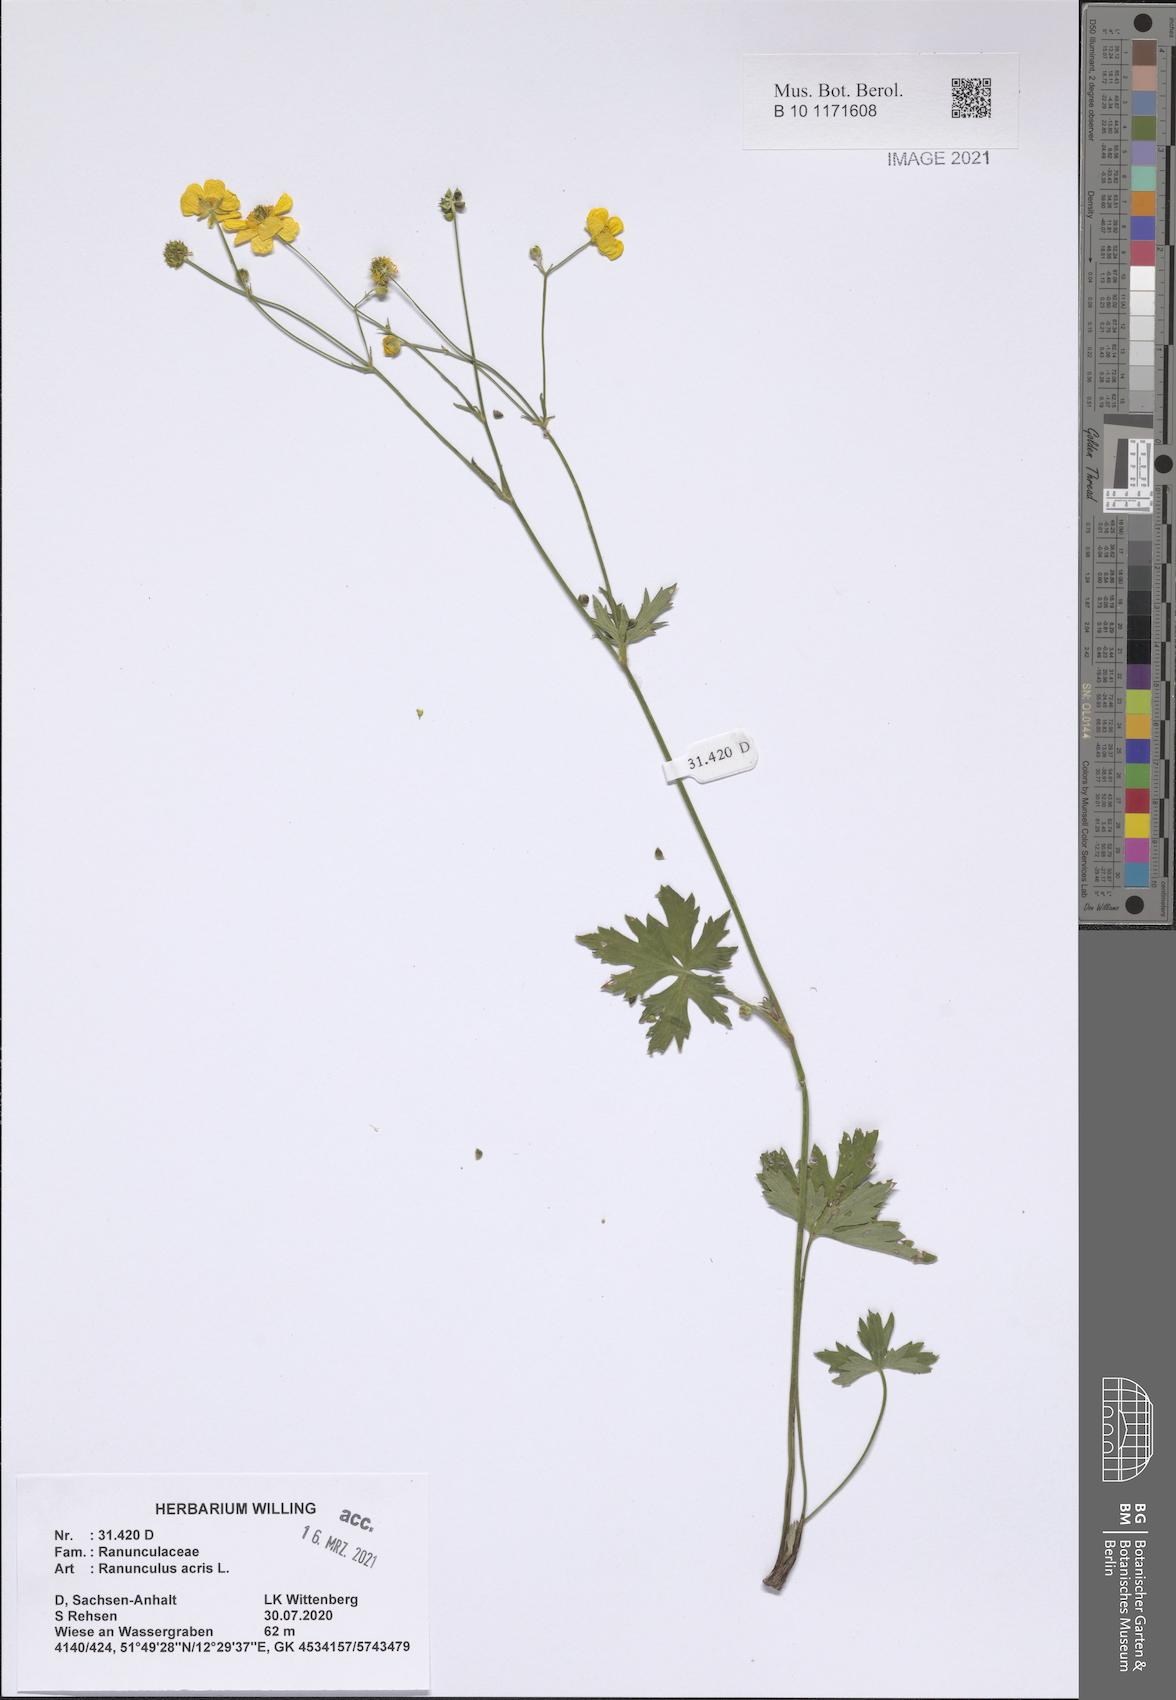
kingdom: Plantae
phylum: Tracheophyta
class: Magnoliopsida
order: Ranunculales
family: Ranunculaceae
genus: Ranunculus
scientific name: Ranunculus acris
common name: Meadow buttercup
